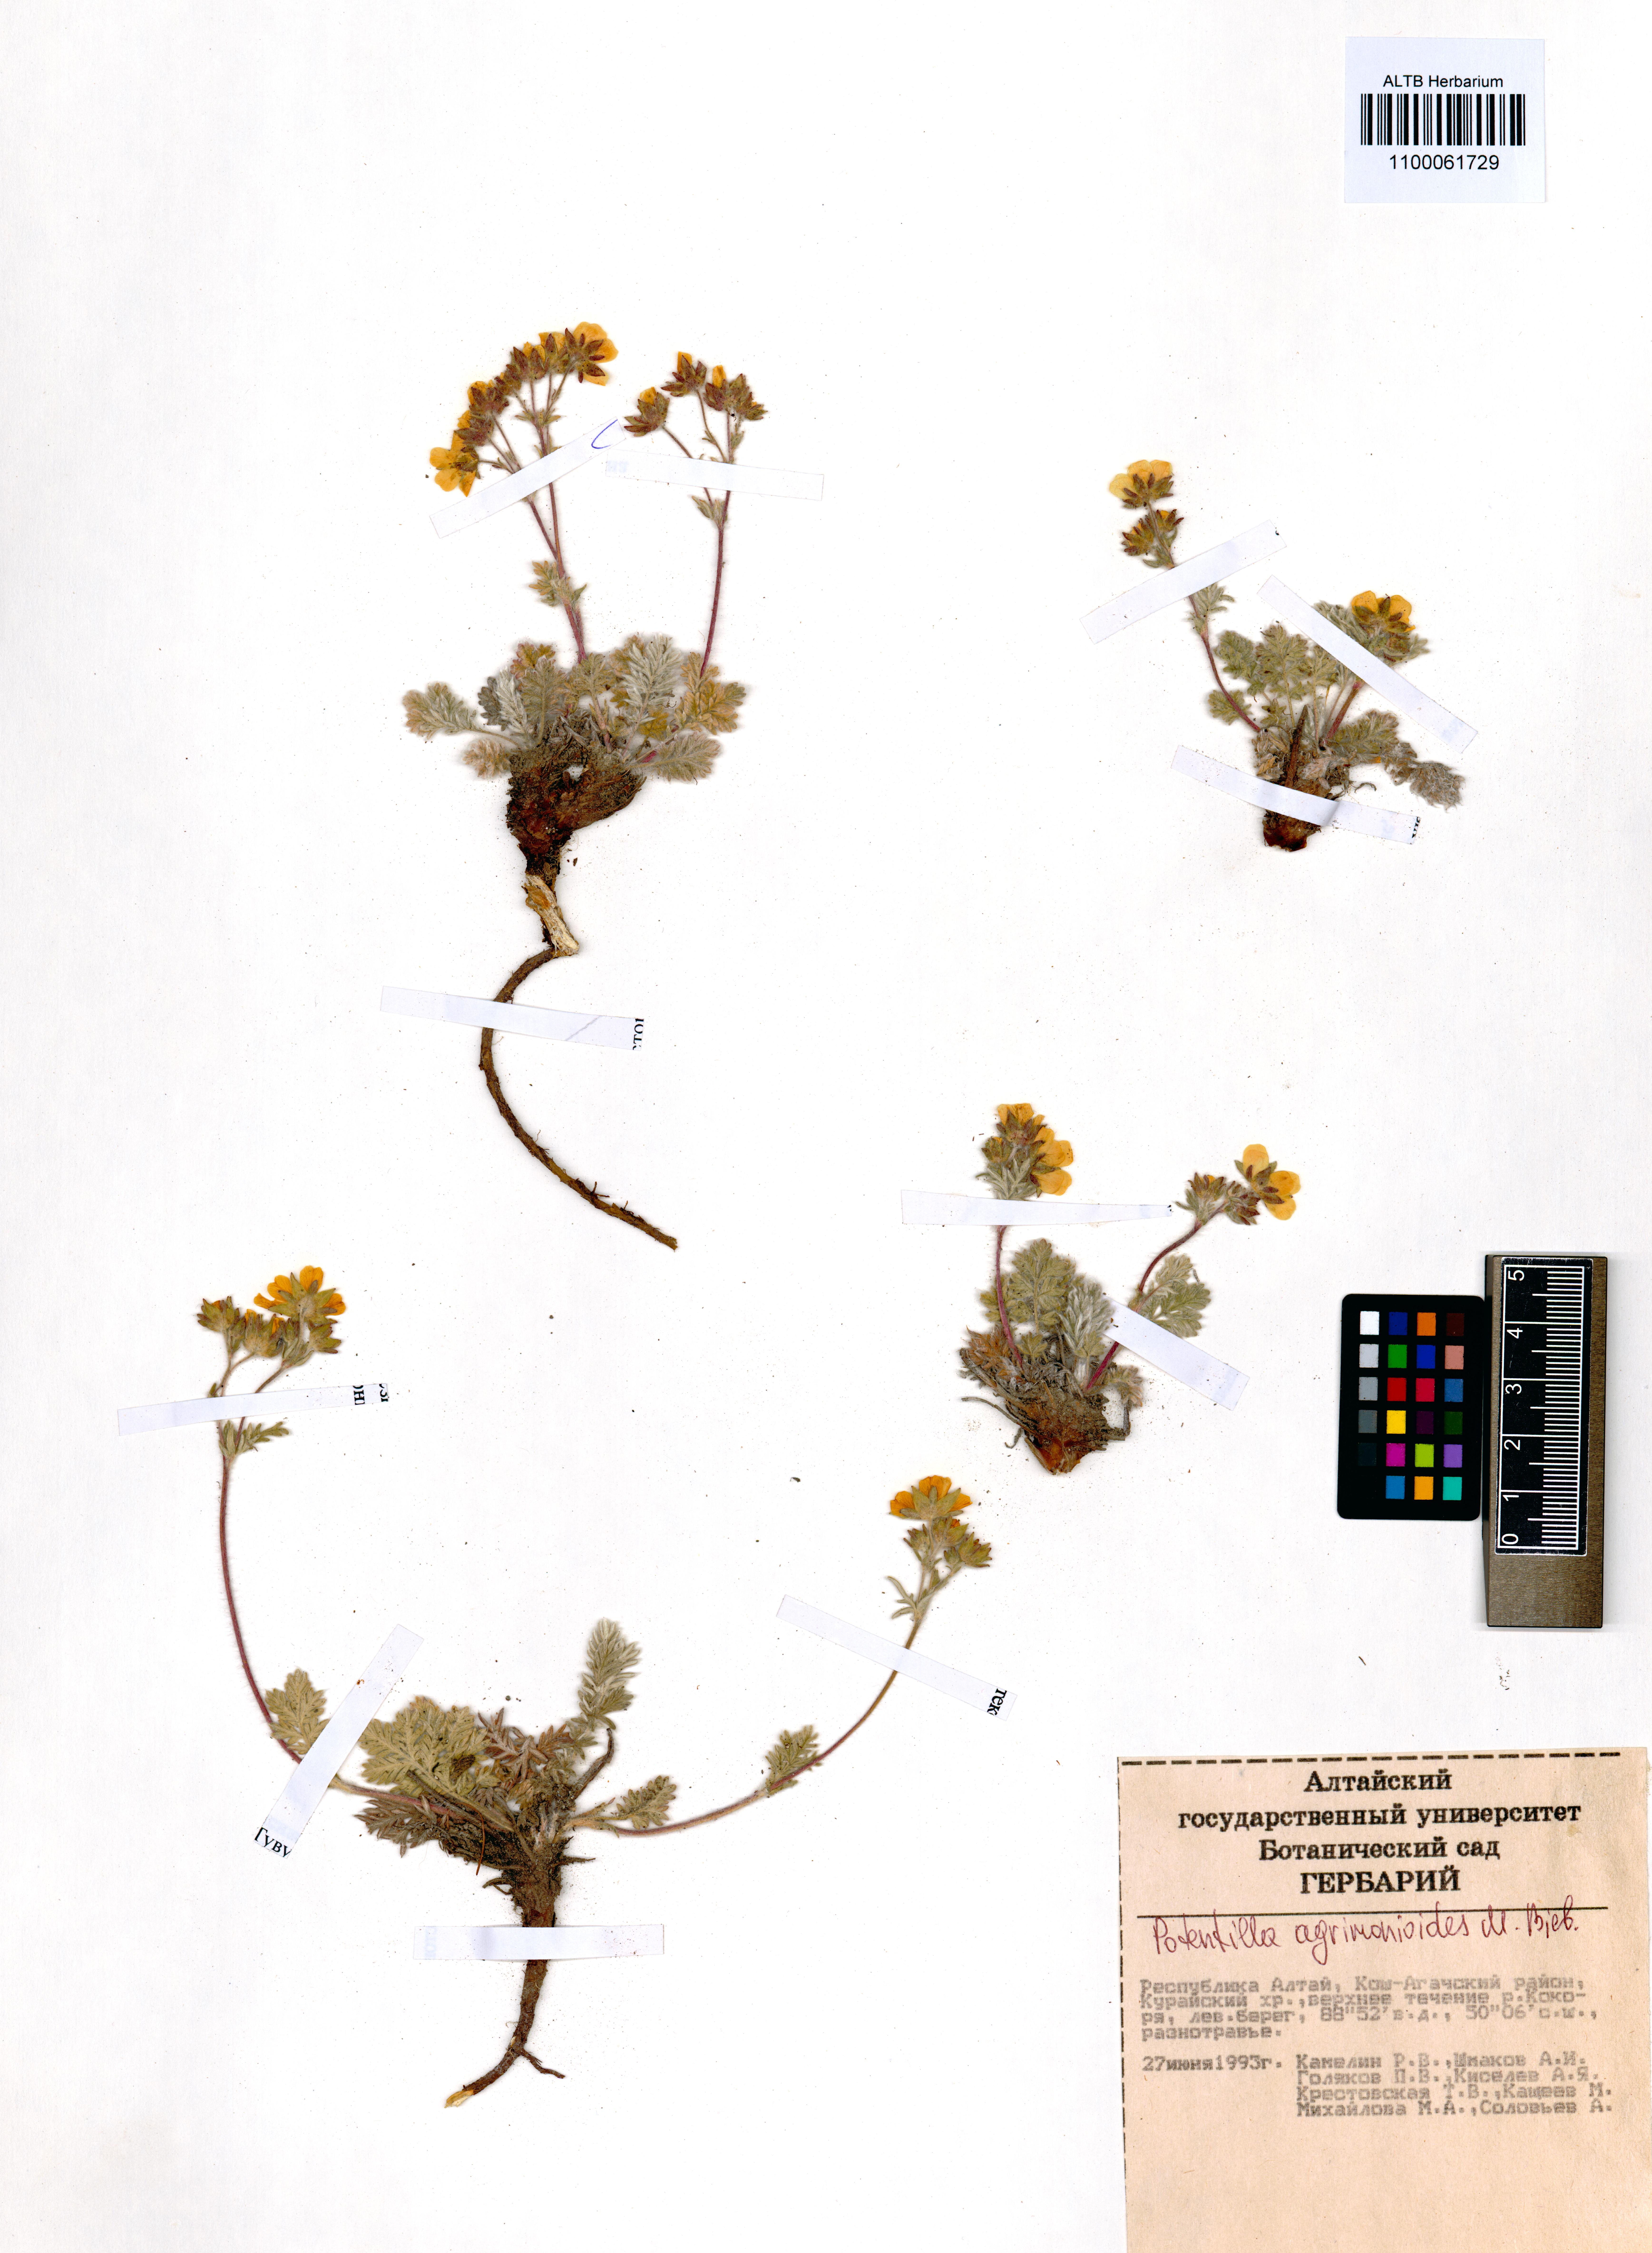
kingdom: Plantae
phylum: Tracheophyta
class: Magnoliopsida
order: Rosales
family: Rosaceae
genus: Potentilla
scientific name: Potentilla agrimonioides
